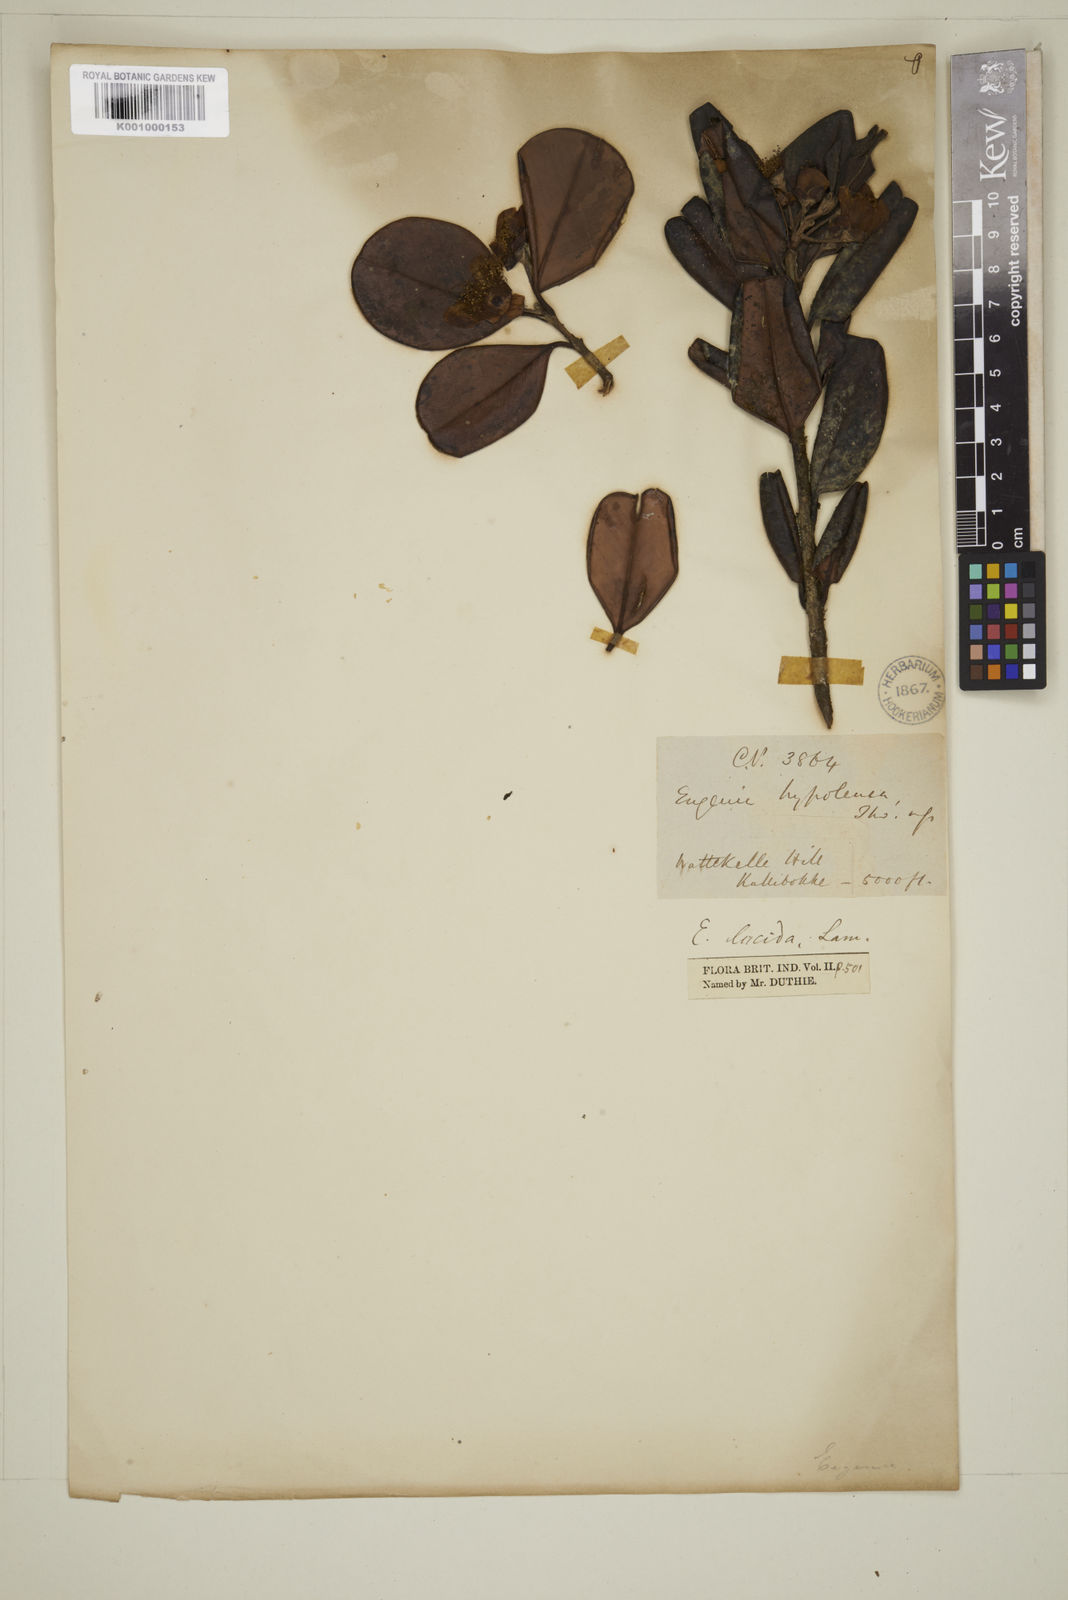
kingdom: Plantae
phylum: Tracheophyta
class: Magnoliopsida
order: Myrtales
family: Myrtaceae
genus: Eugenia
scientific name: Eugenia codyensis
